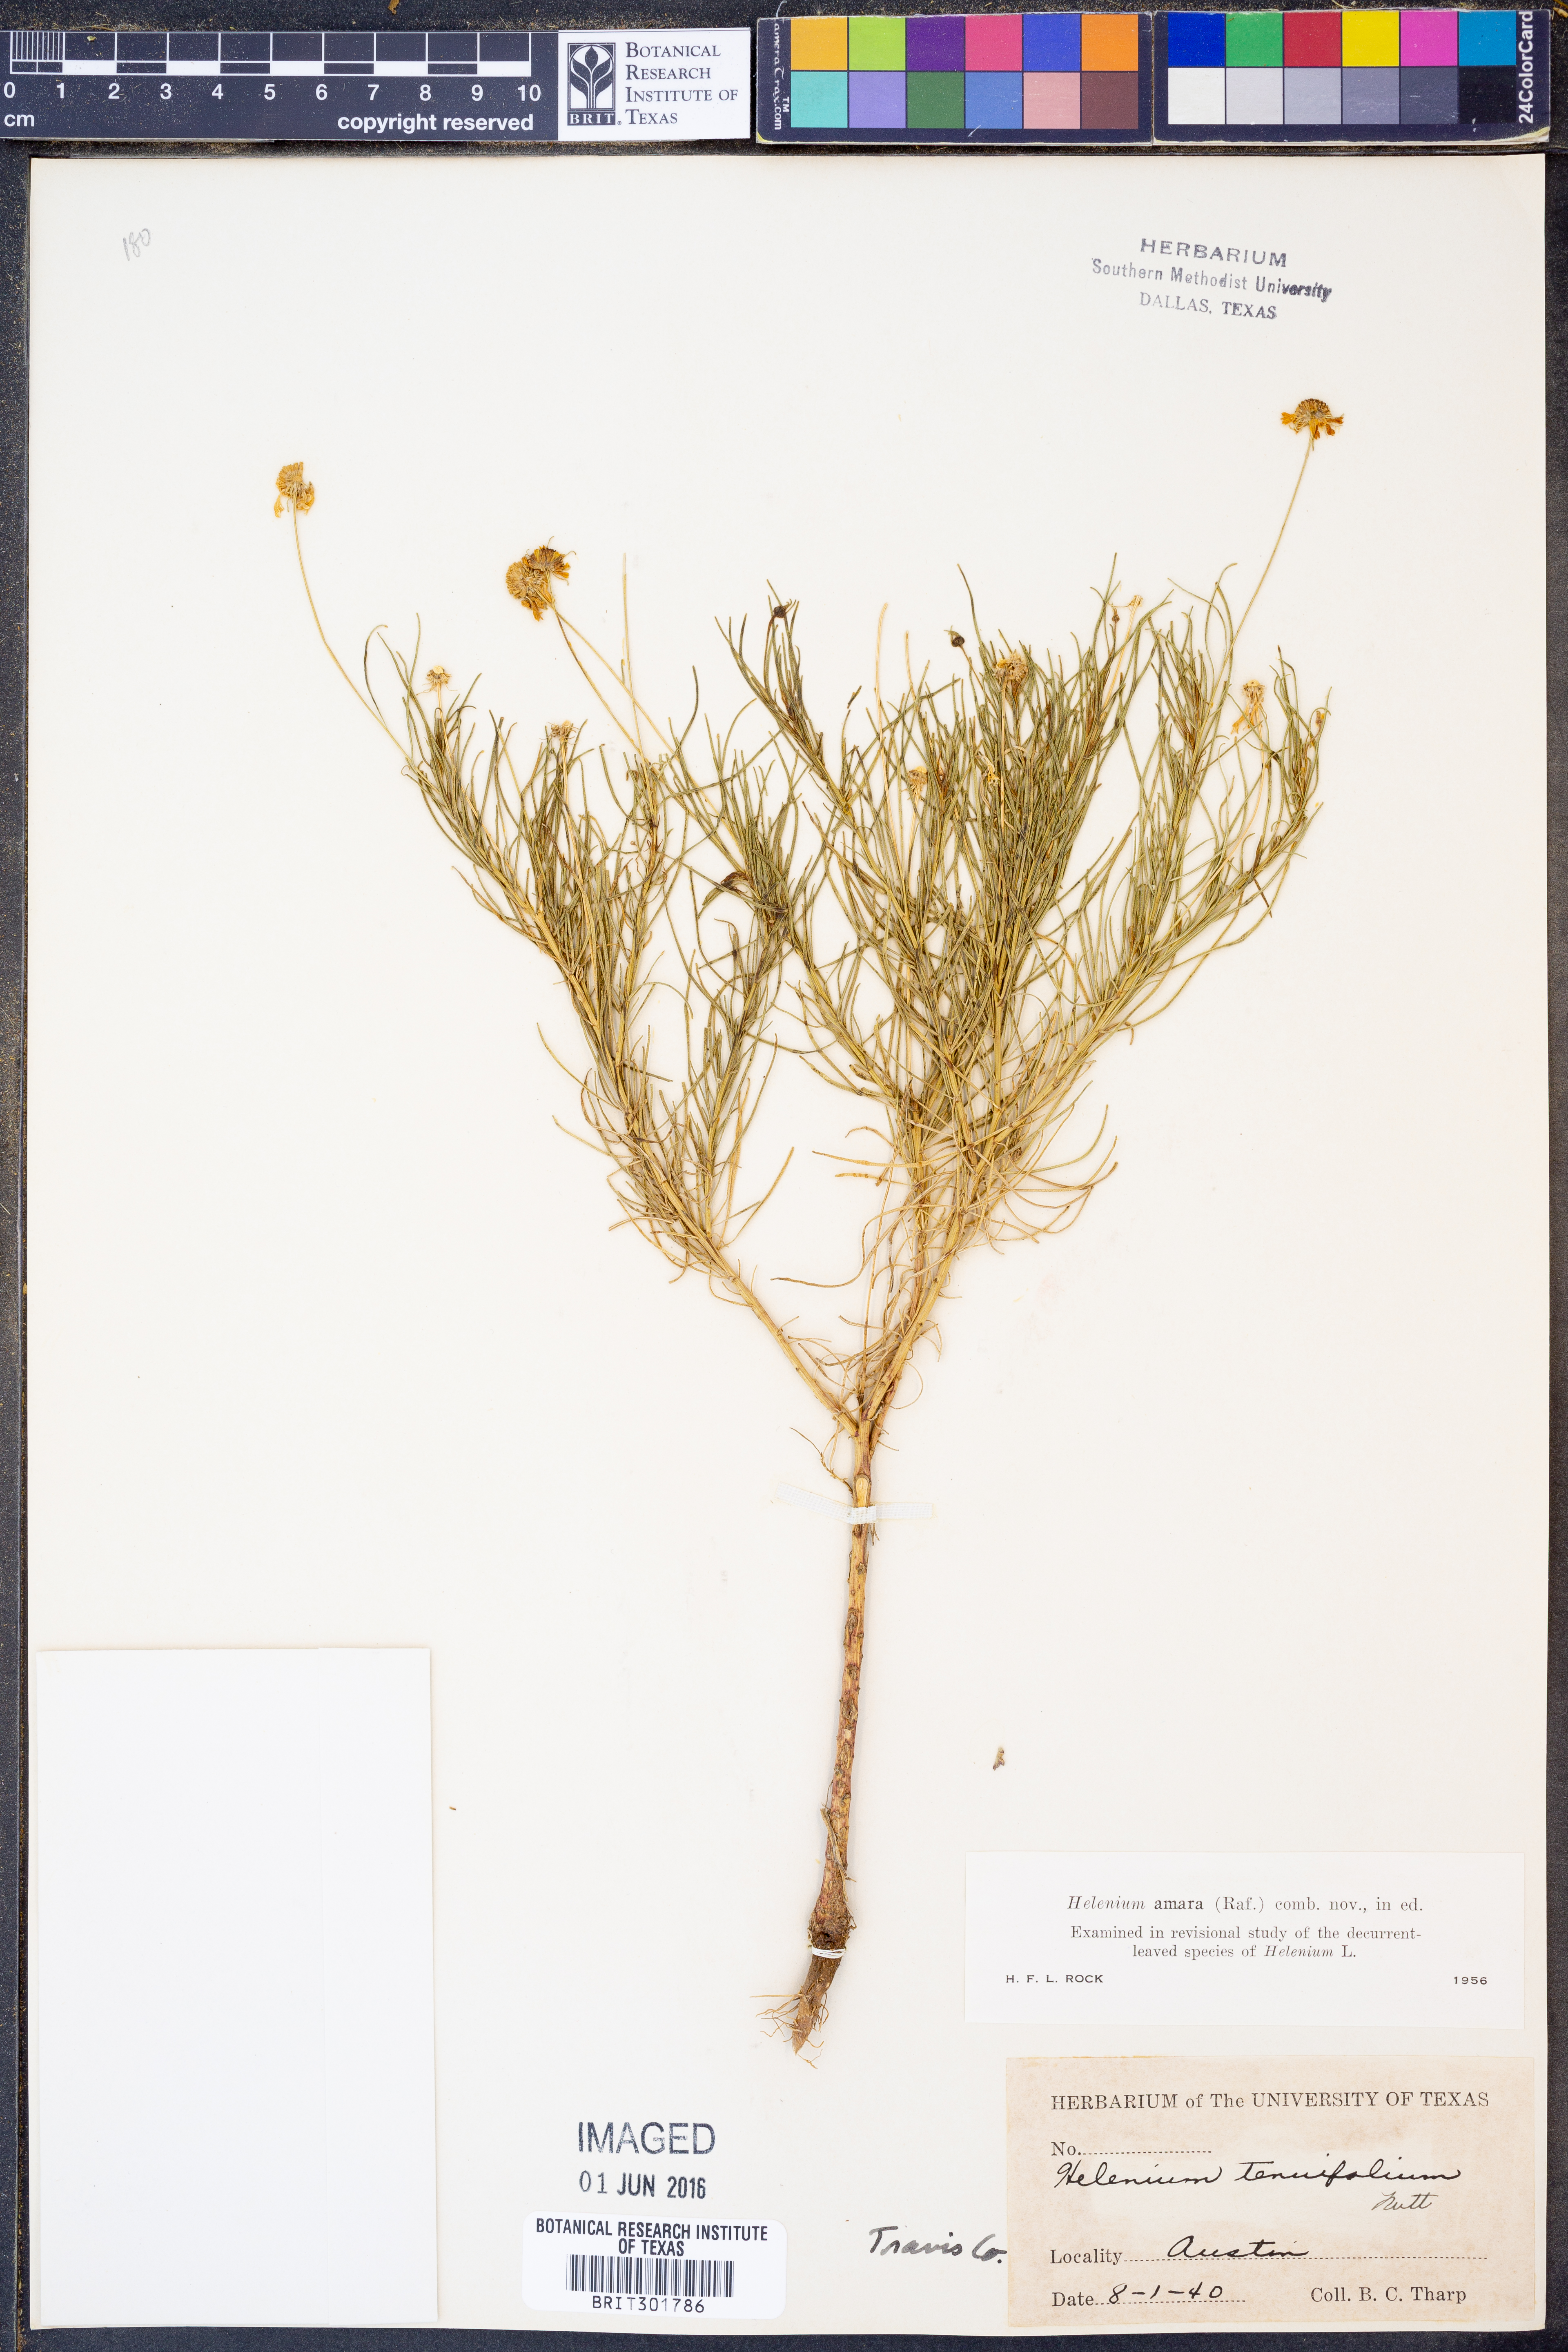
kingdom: Plantae
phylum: Tracheophyta
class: Magnoliopsida
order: Asterales
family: Asteraceae
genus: Helenium
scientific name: Helenium amarum
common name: Bitter sneezeweed
